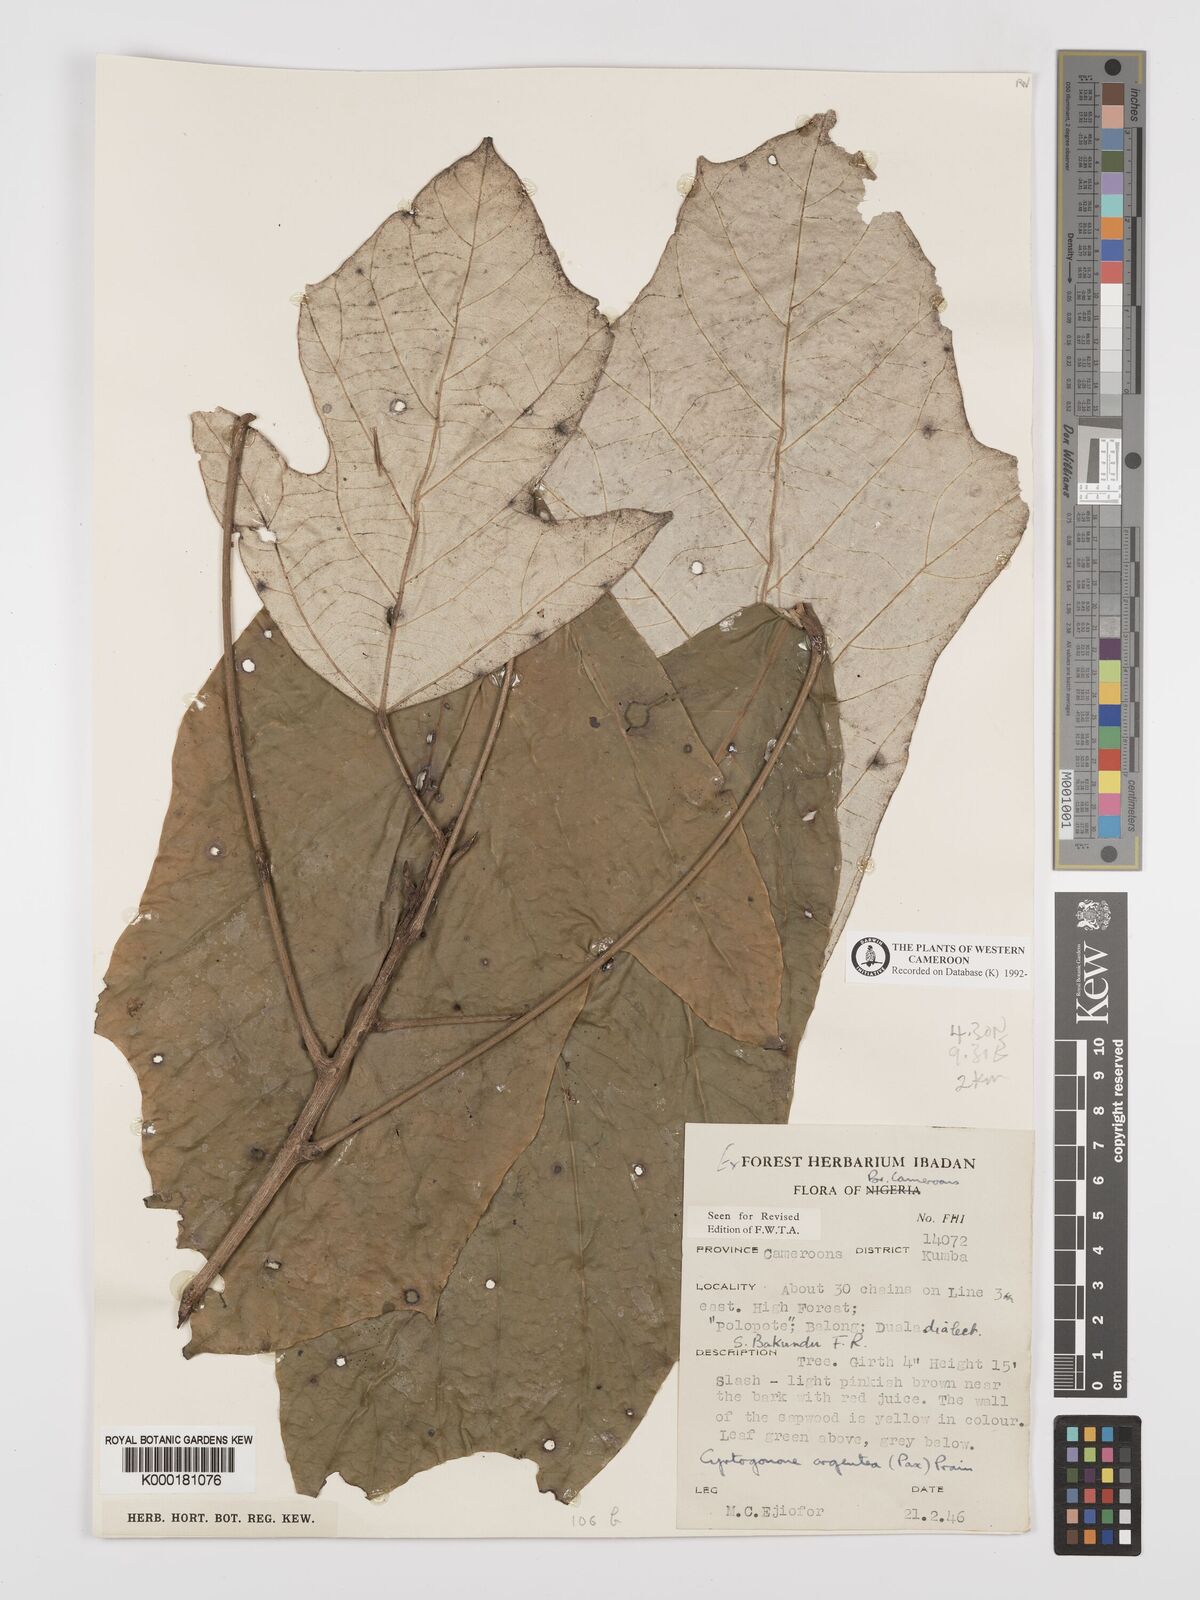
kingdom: Plantae
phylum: Tracheophyta
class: Magnoliopsida
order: Malpighiales
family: Euphorbiaceae
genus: Cyrtogonone
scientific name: Cyrtogonone argentea
